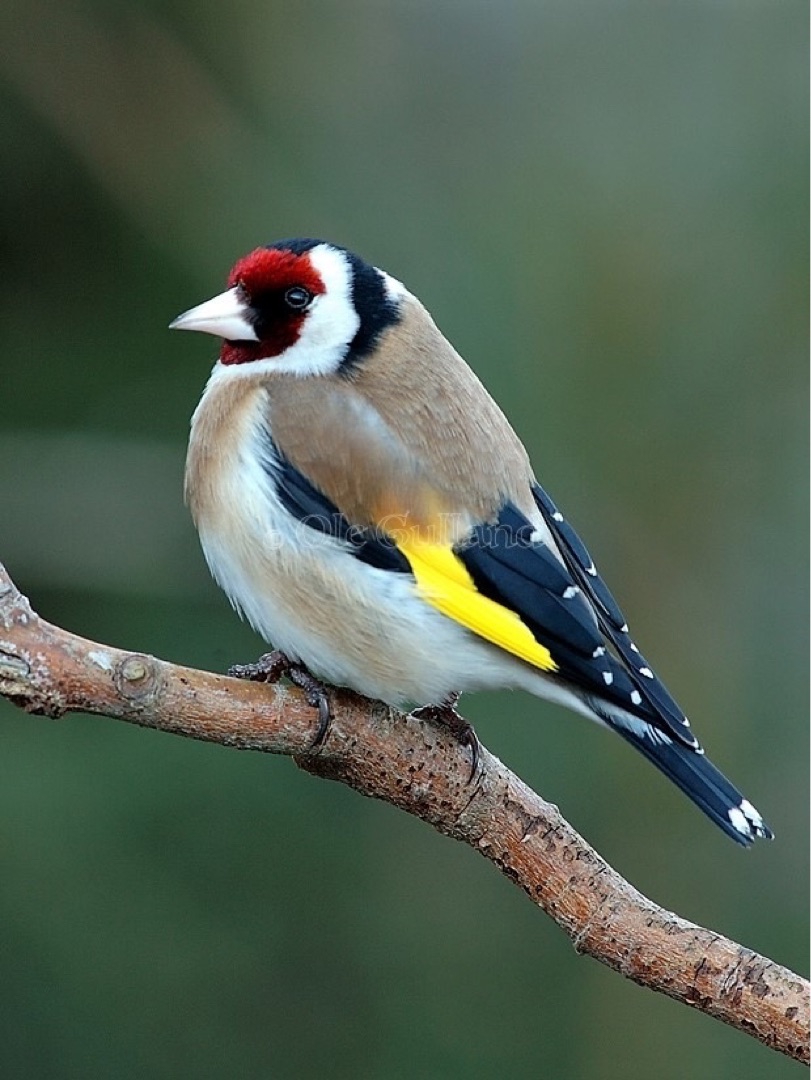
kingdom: Animalia
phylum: Chordata
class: Aves
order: Passeriformes
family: Fringillidae
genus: Carduelis
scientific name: Carduelis carduelis
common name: Stillits
